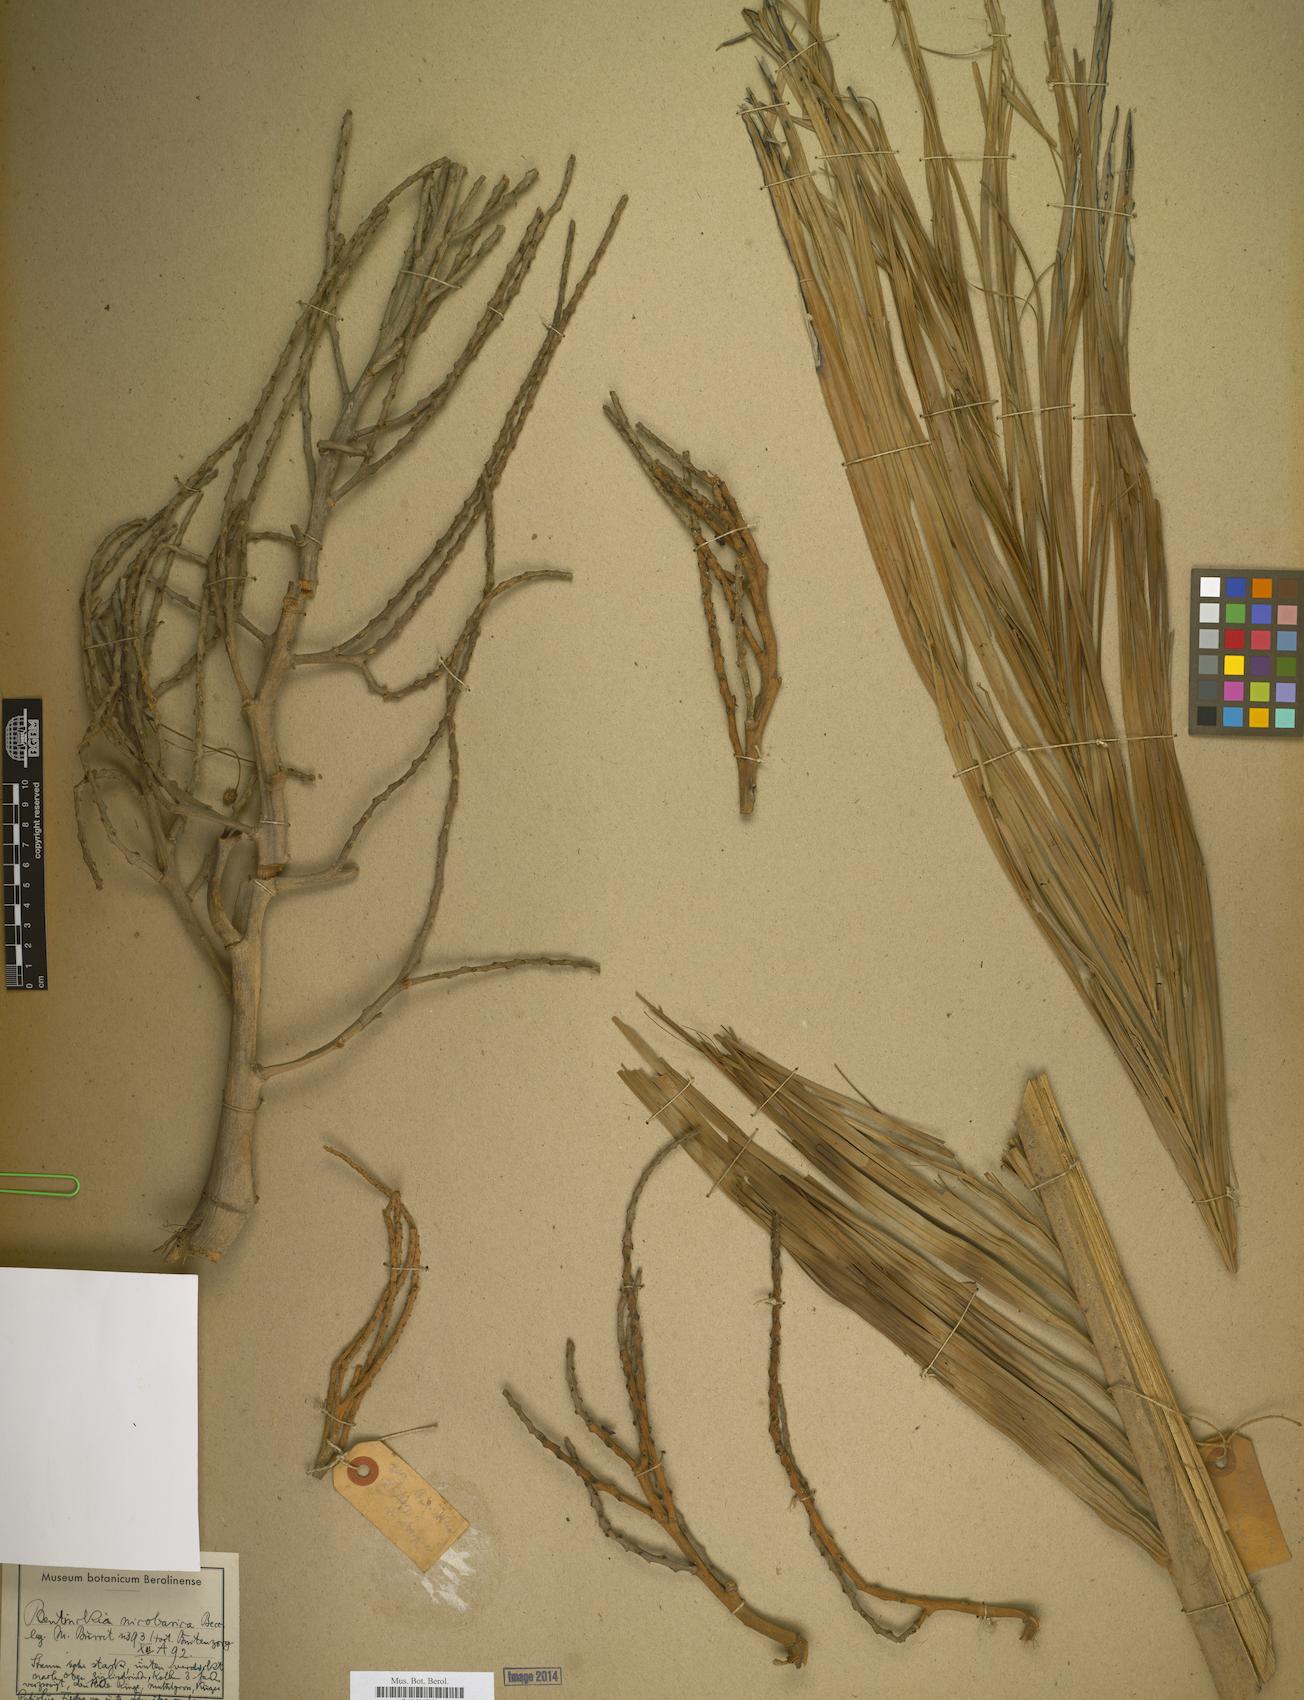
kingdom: Plantae
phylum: Tracheophyta
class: Liliopsida
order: Arecales
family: Arecaceae
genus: Bentinckia
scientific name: Bentinckia
